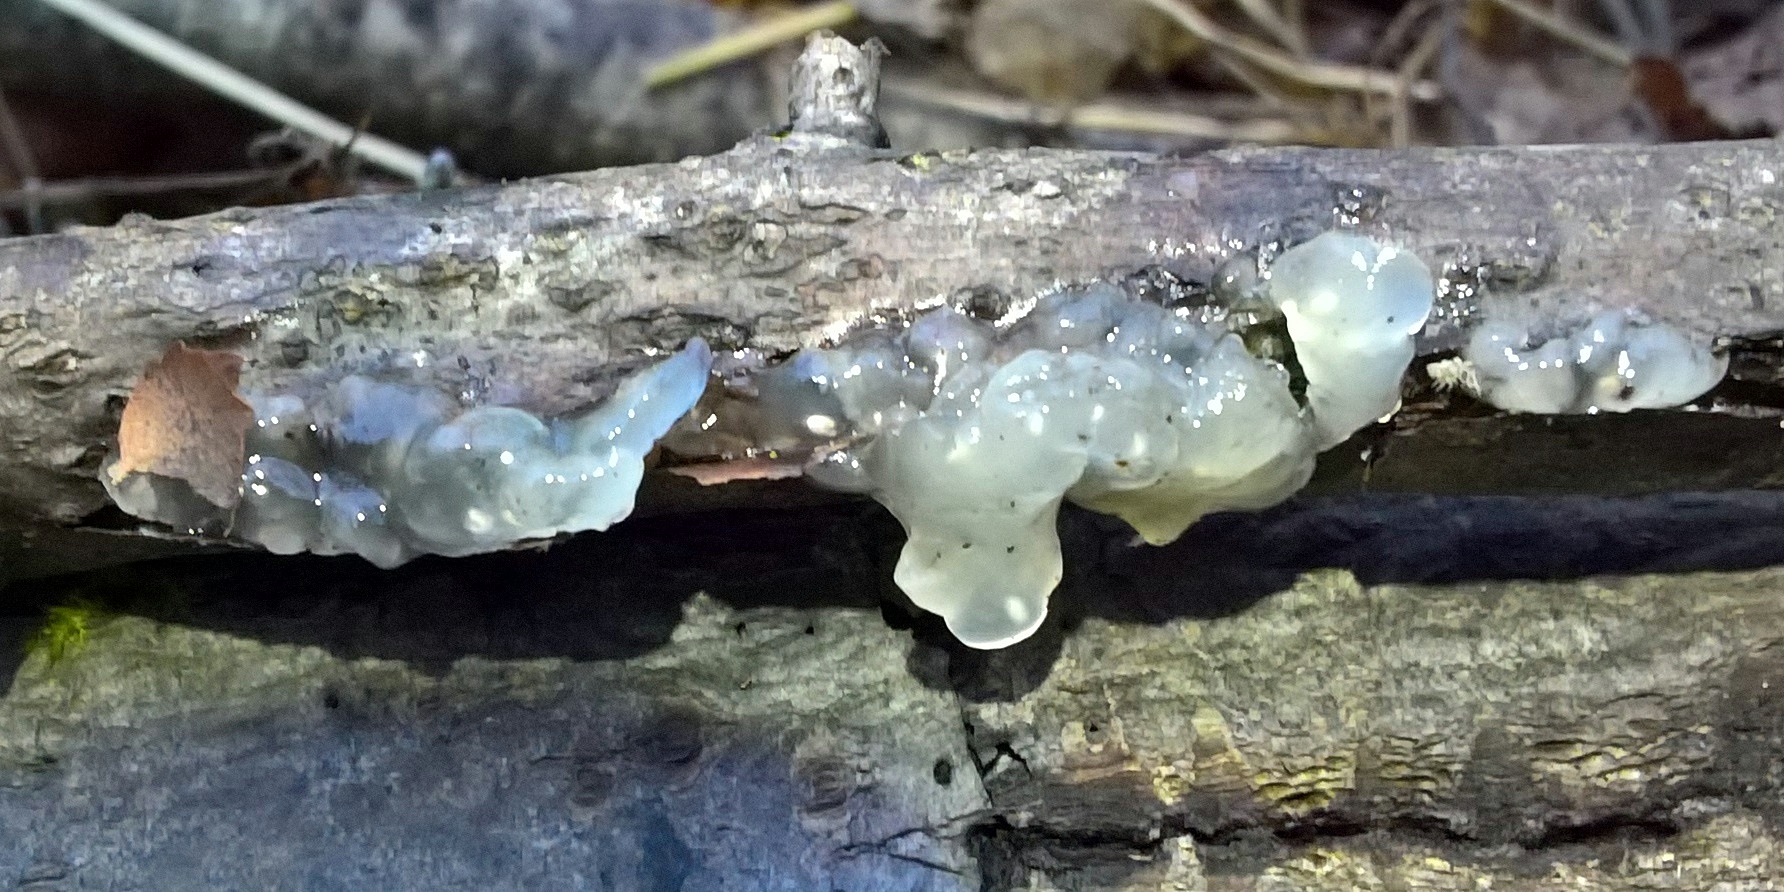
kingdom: Fungi
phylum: Basidiomycota
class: Agaricomycetes
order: Auriculariales
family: Hyaloriaceae
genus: Myxarium
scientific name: Myxarium nucleatum
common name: klar bævretop
